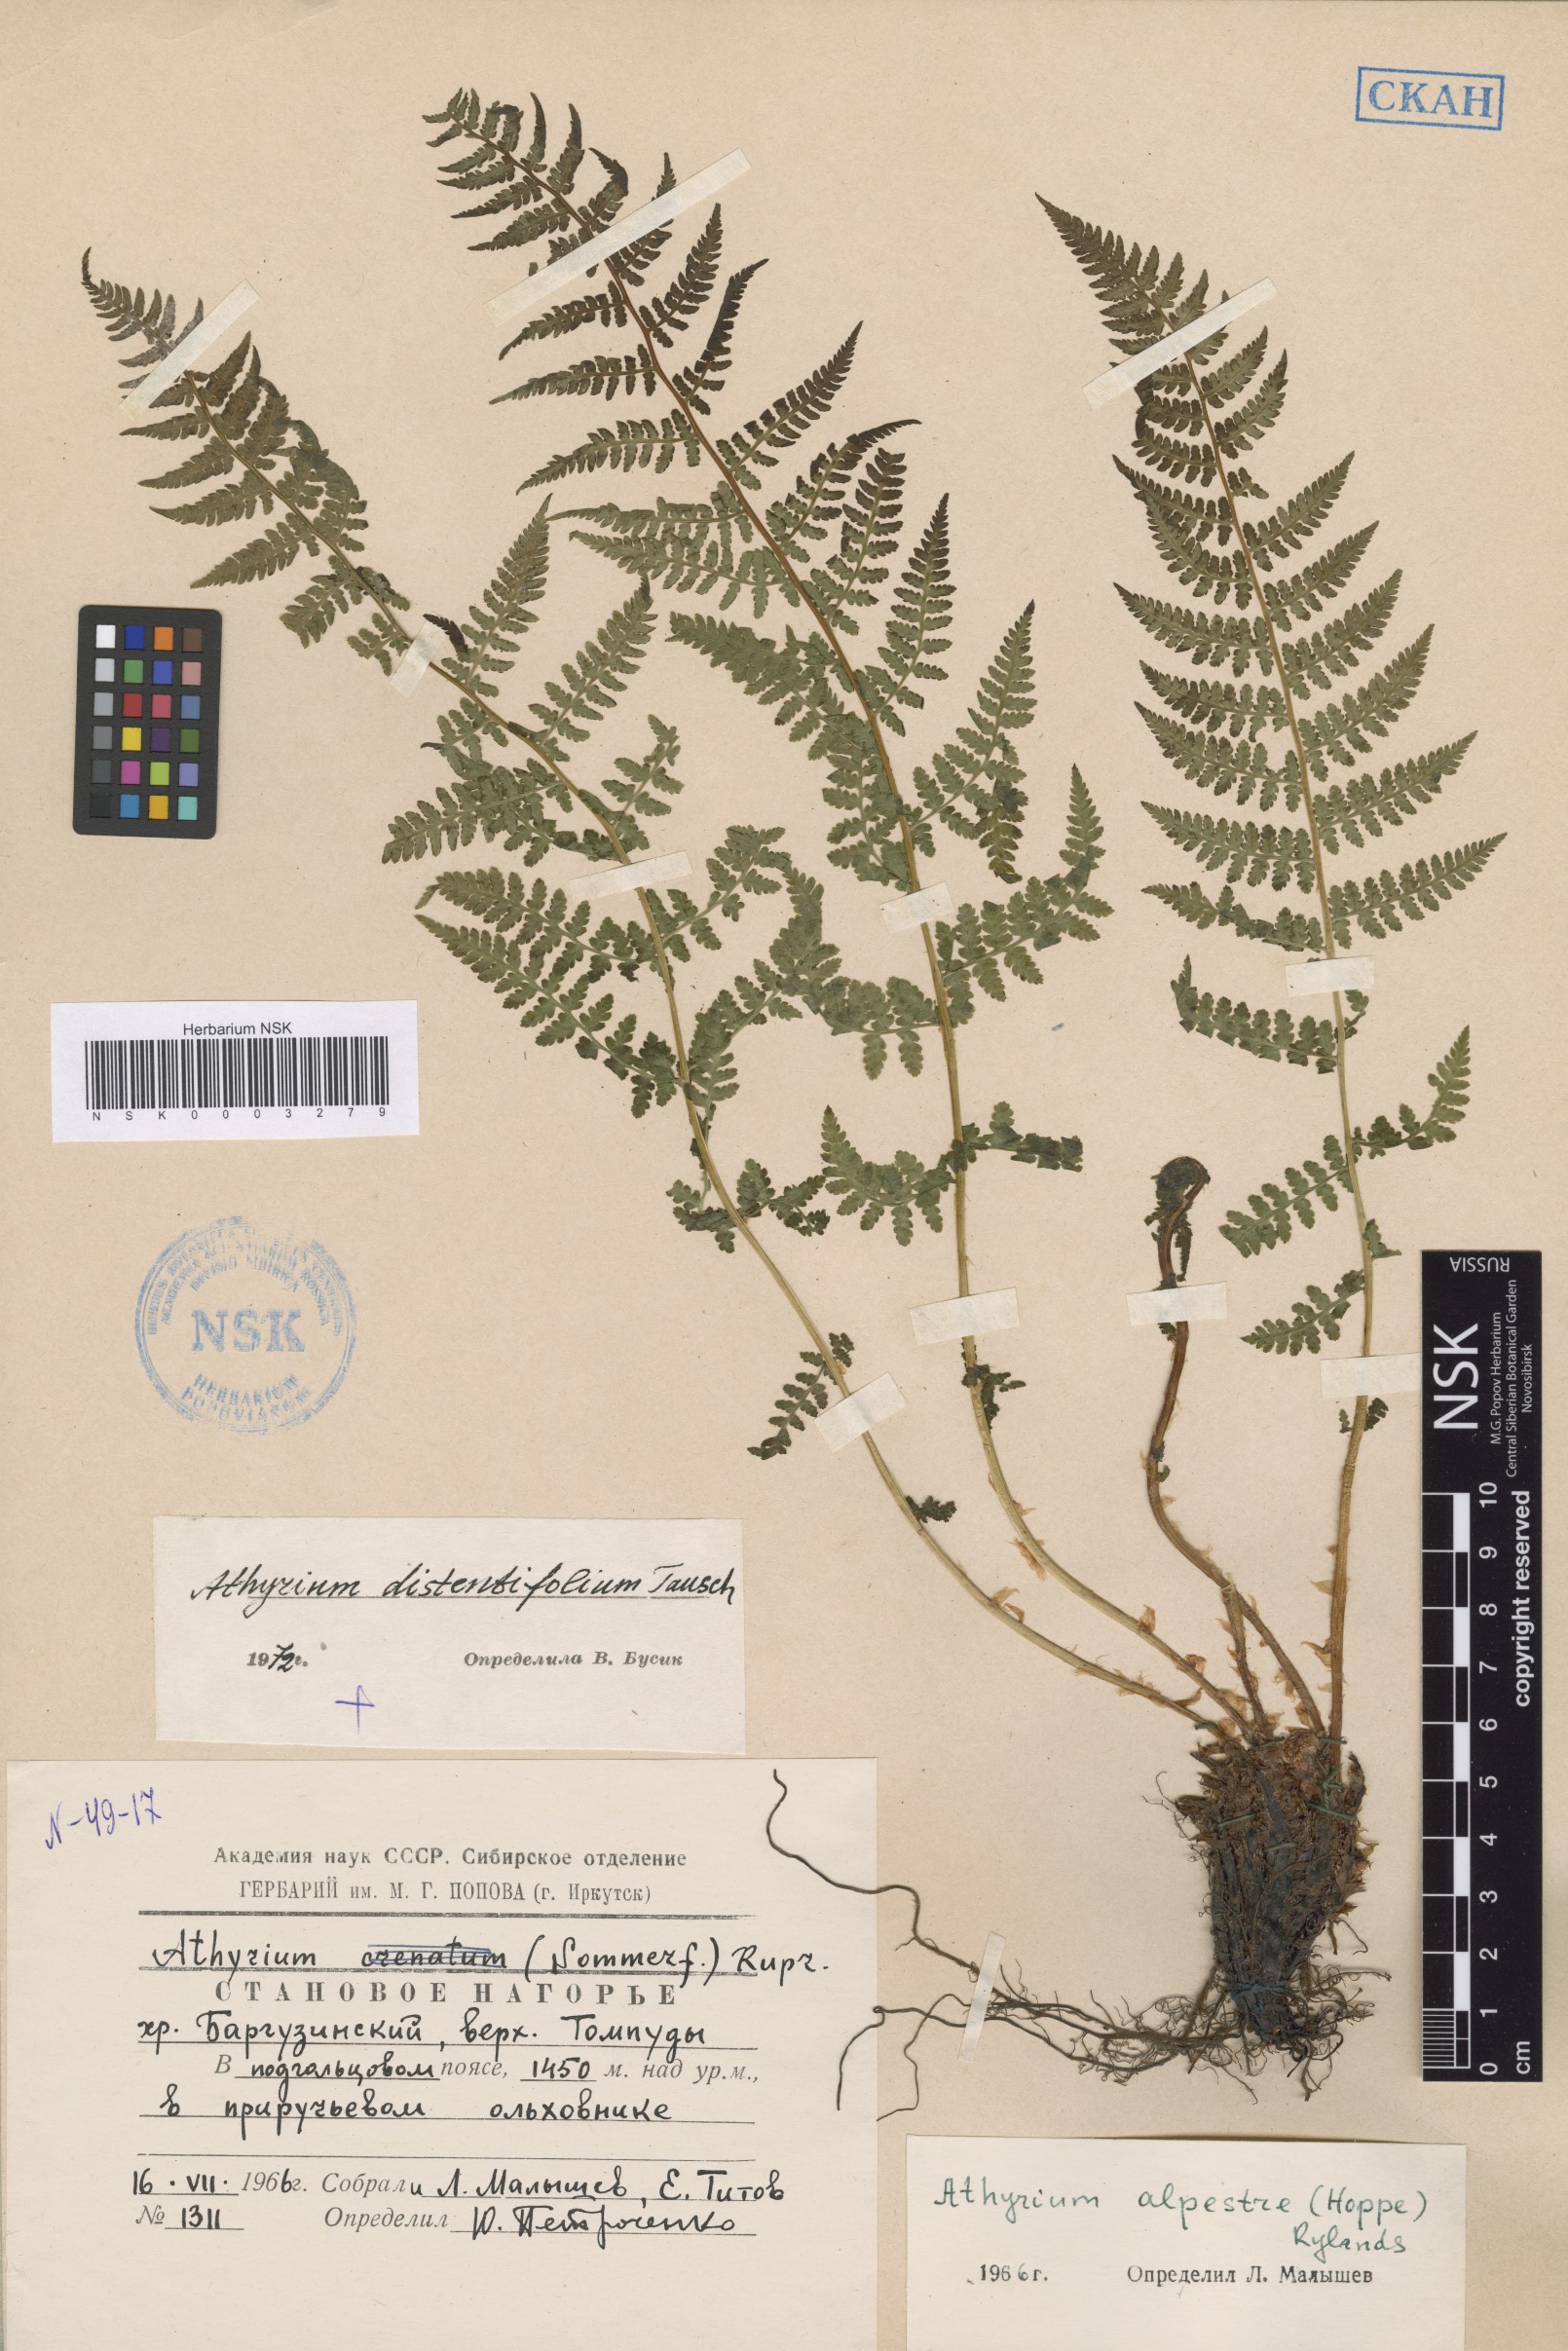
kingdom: Plantae
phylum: Tracheophyta
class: Polypodiopsida
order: Polypodiales
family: Athyriaceae
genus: Pseudathyrium
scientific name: Pseudathyrium alpestre
